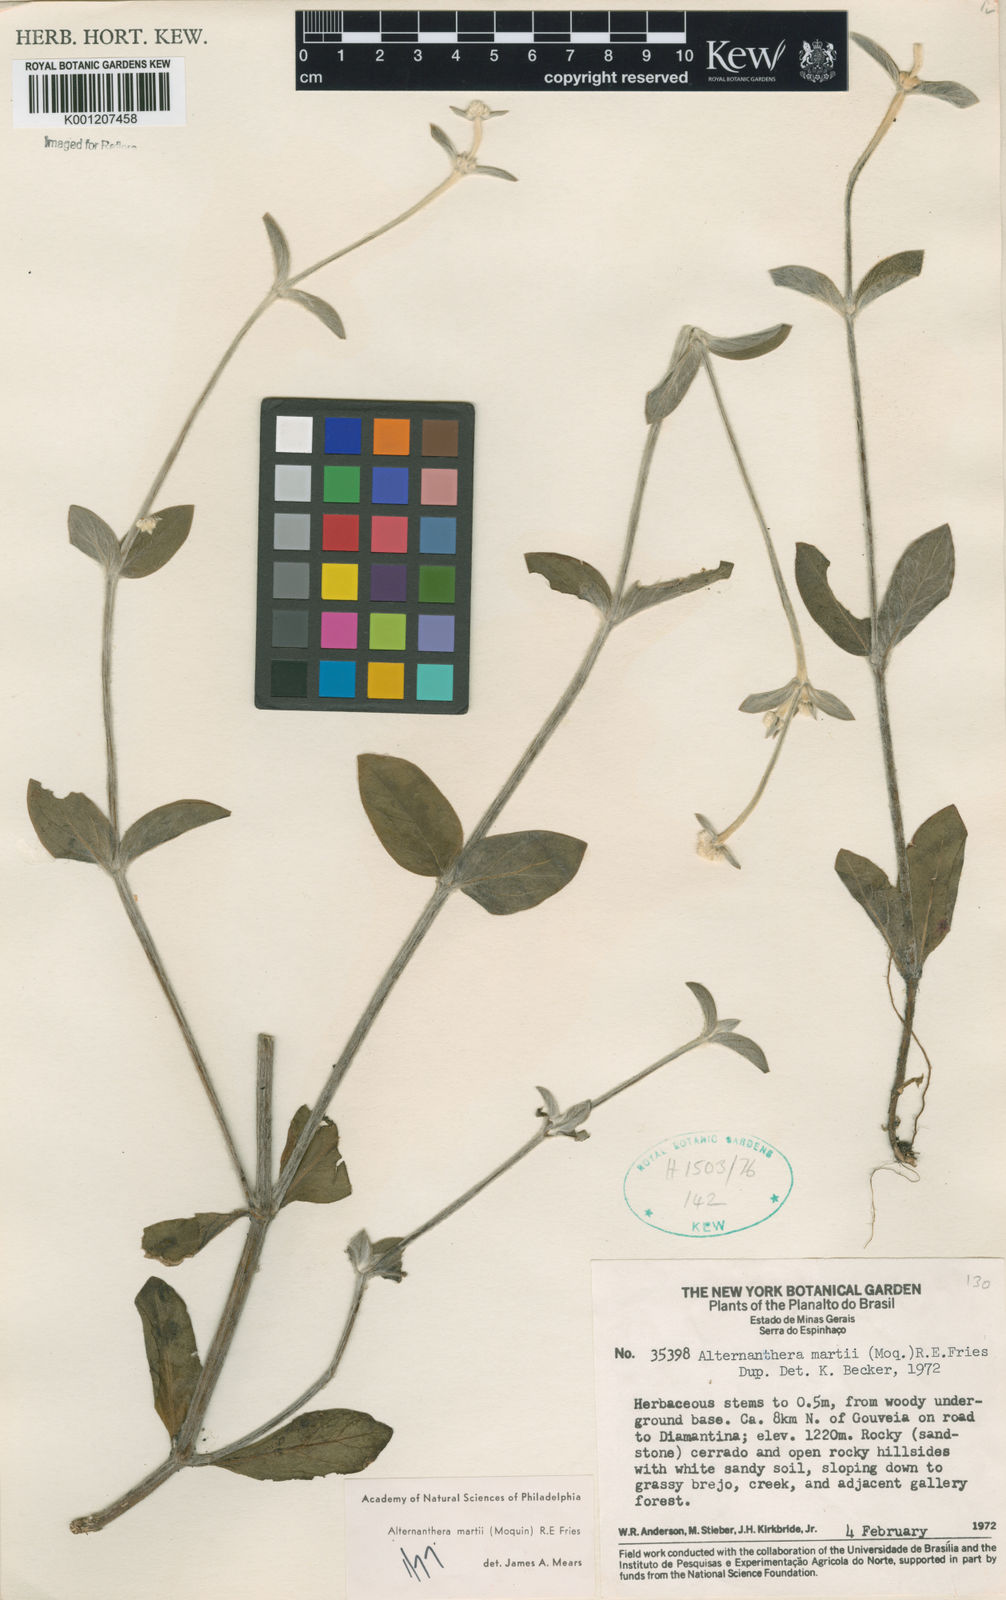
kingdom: Plantae
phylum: Tracheophyta
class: Magnoliopsida
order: Caryophyllales
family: Amaranthaceae
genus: Alternanthera
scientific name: Alternanthera martii
